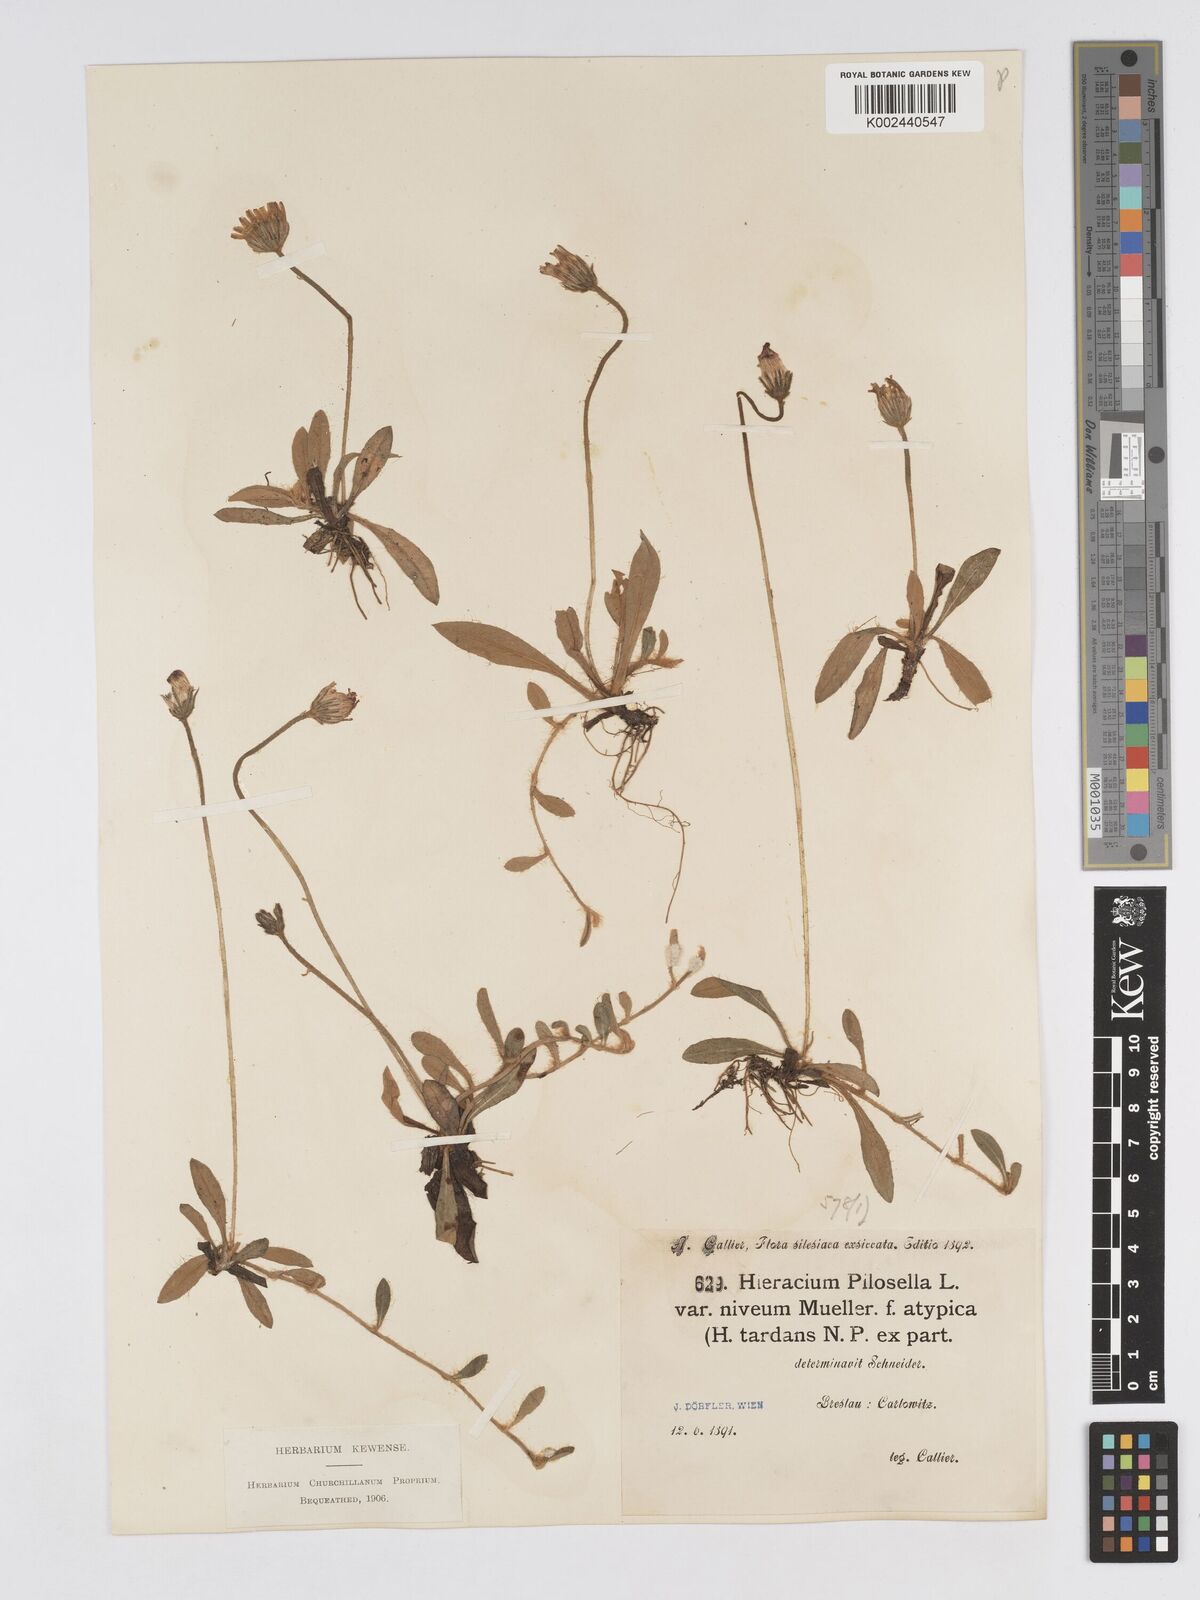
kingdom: Plantae
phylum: Tracheophyta
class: Magnoliopsida
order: Asterales
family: Asteraceae
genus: Pilosella
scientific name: Pilosella tardans
